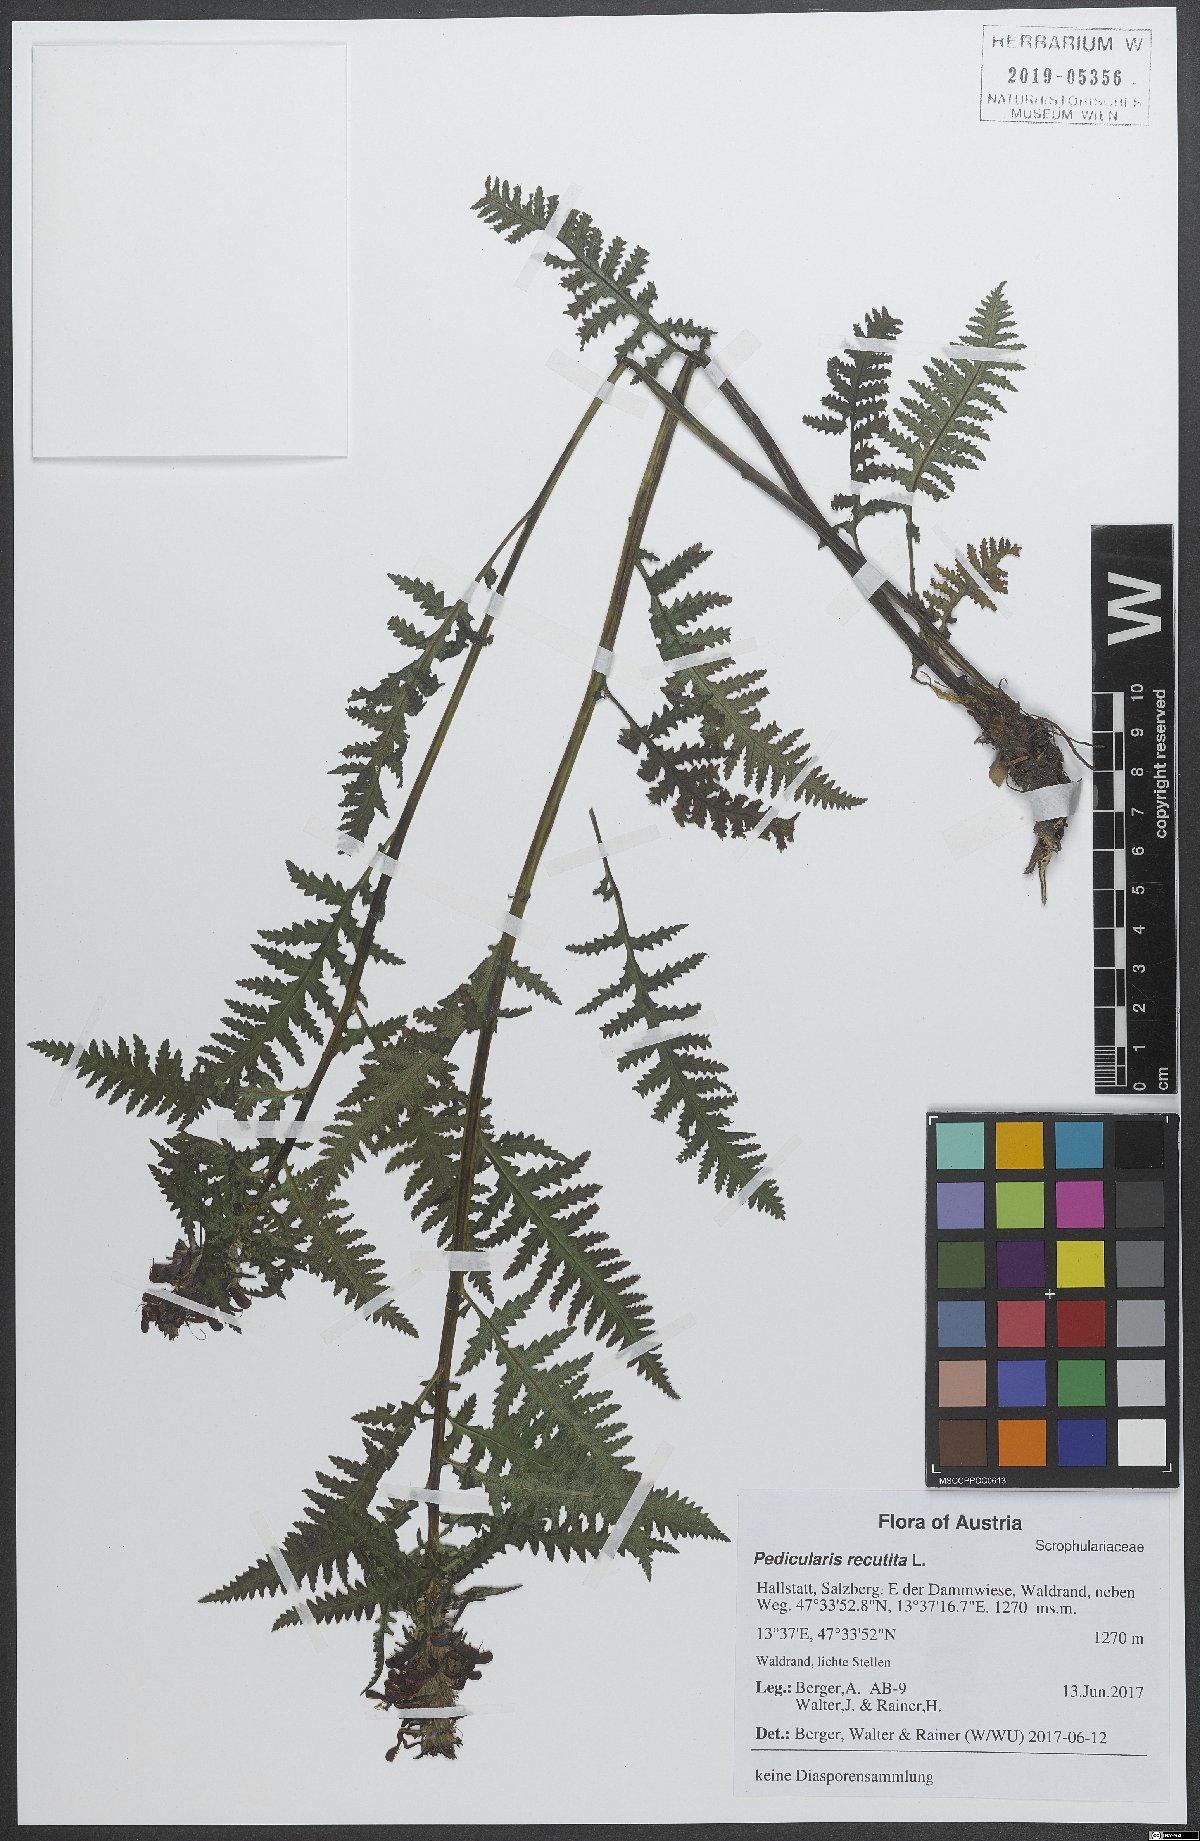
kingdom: Plantae
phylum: Tracheophyta
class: Magnoliopsida
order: Lamiales
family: Orobanchaceae
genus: Pedicularis
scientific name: Pedicularis recutita
